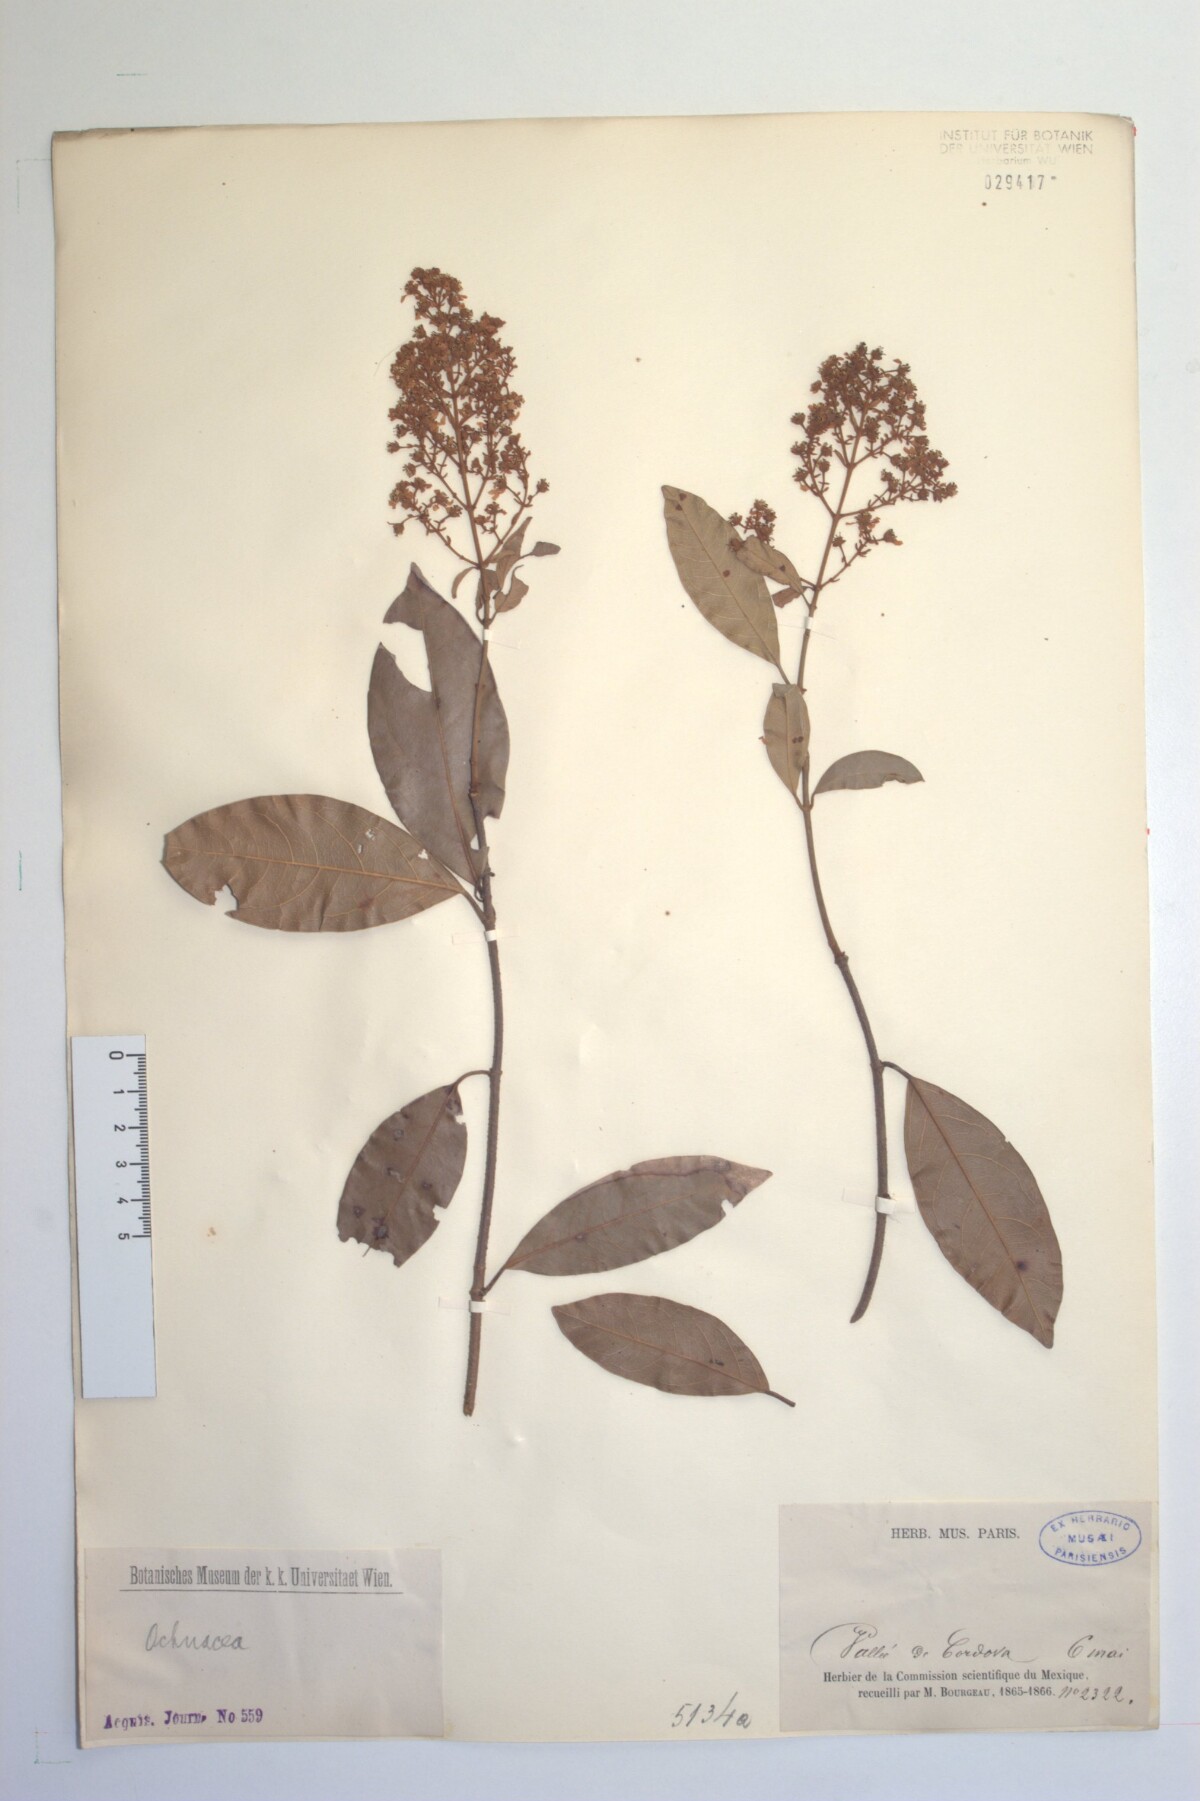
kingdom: Plantae
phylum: Tracheophyta
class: Magnoliopsida
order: Malpighiales
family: Malpighiaceae
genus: Heteropterys
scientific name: Heteropterys laurifolia
